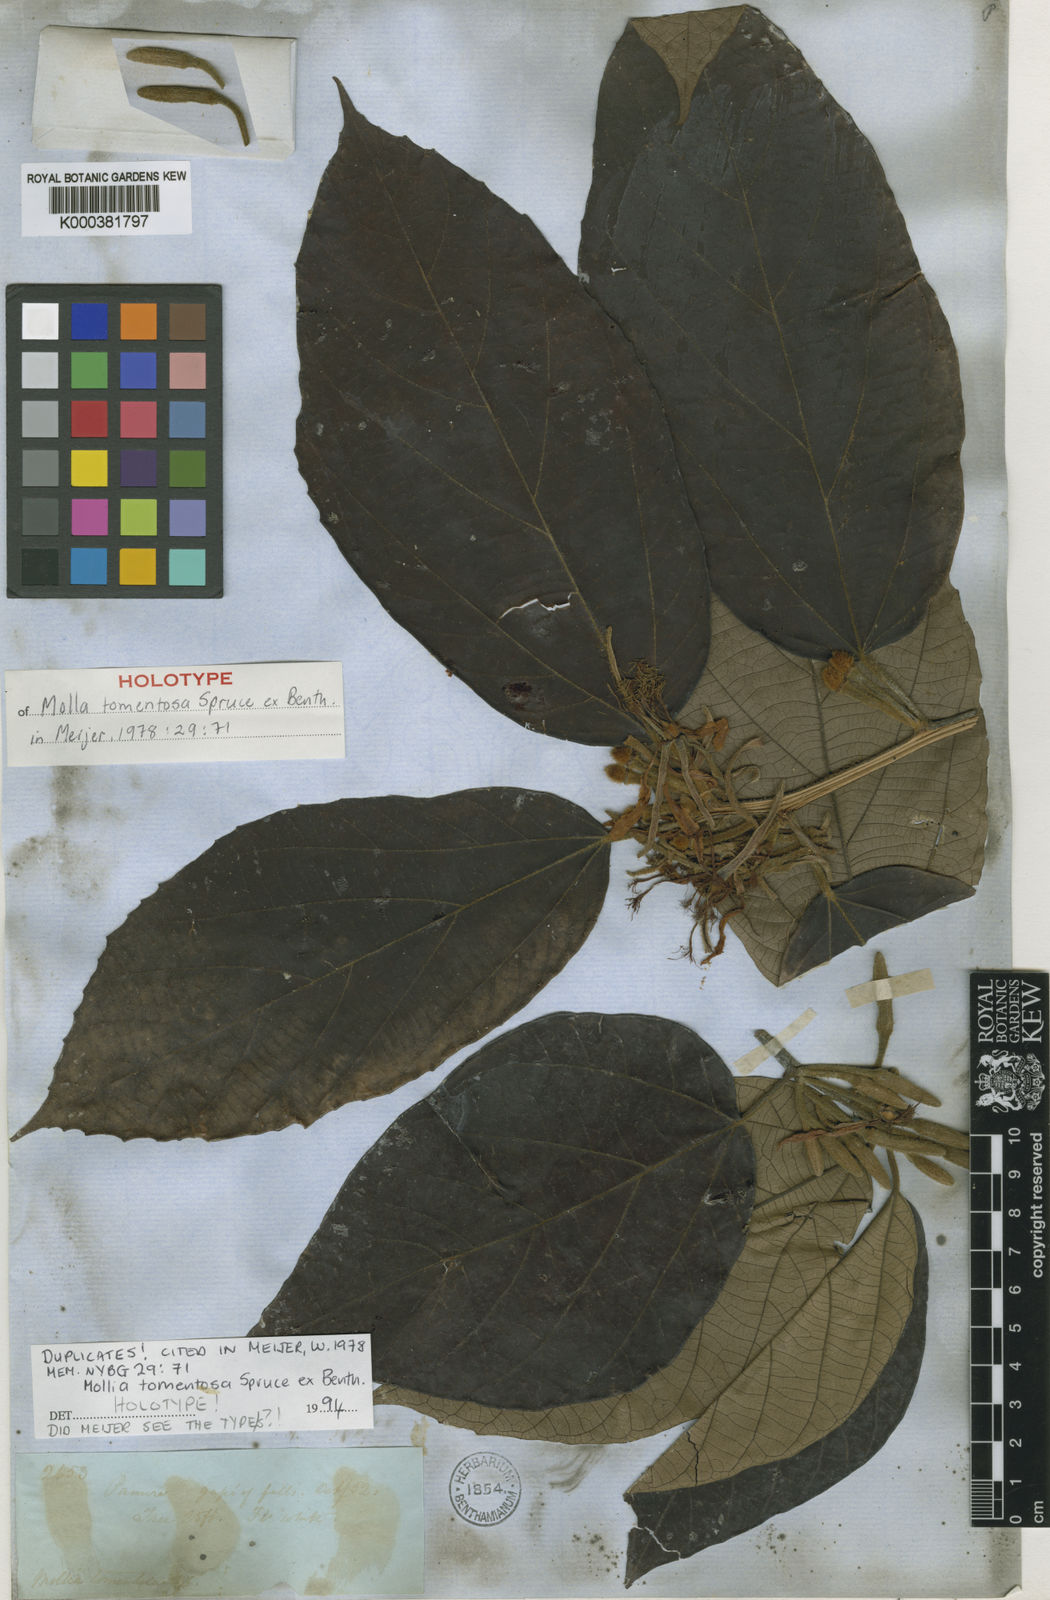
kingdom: Plantae
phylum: Tracheophyta
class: Magnoliopsida
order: Malvales
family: Malvaceae
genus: Mollia
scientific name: Mollia tomentosa
